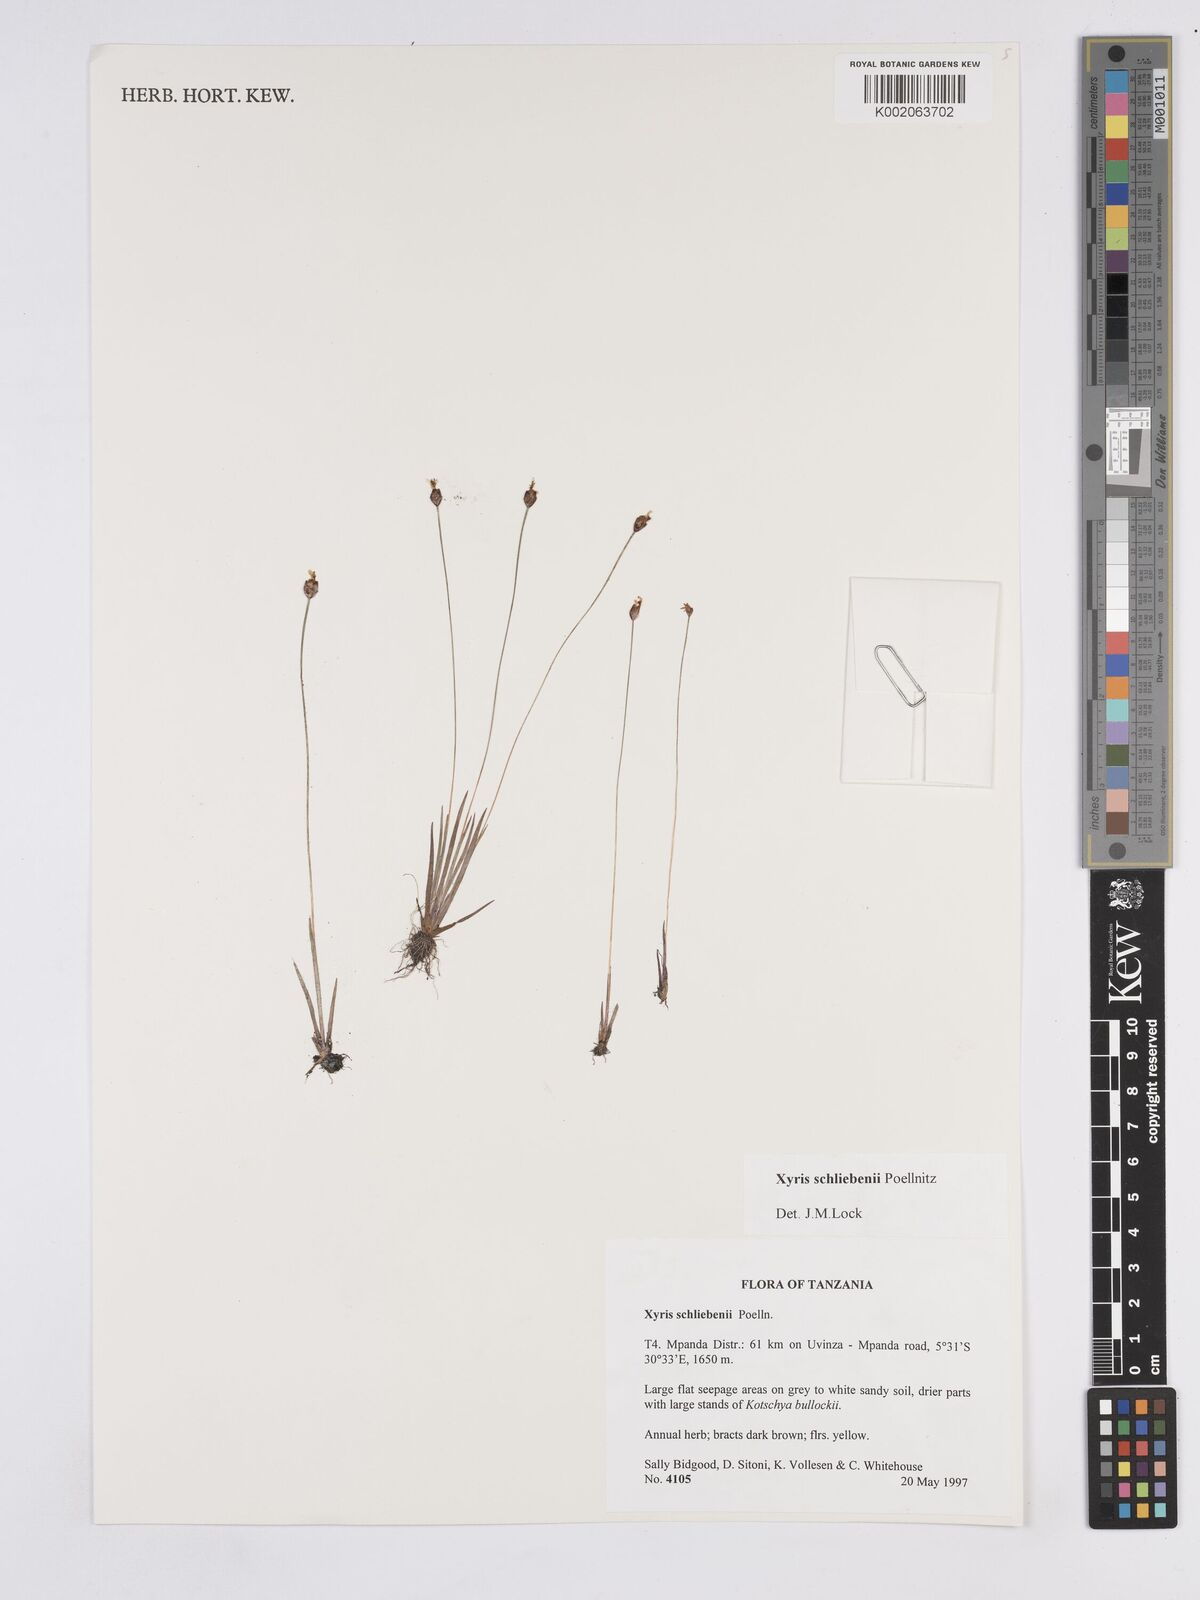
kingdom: Plantae
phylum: Tracheophyta
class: Liliopsida
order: Poales
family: Xyridaceae
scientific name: Xyridaceae
